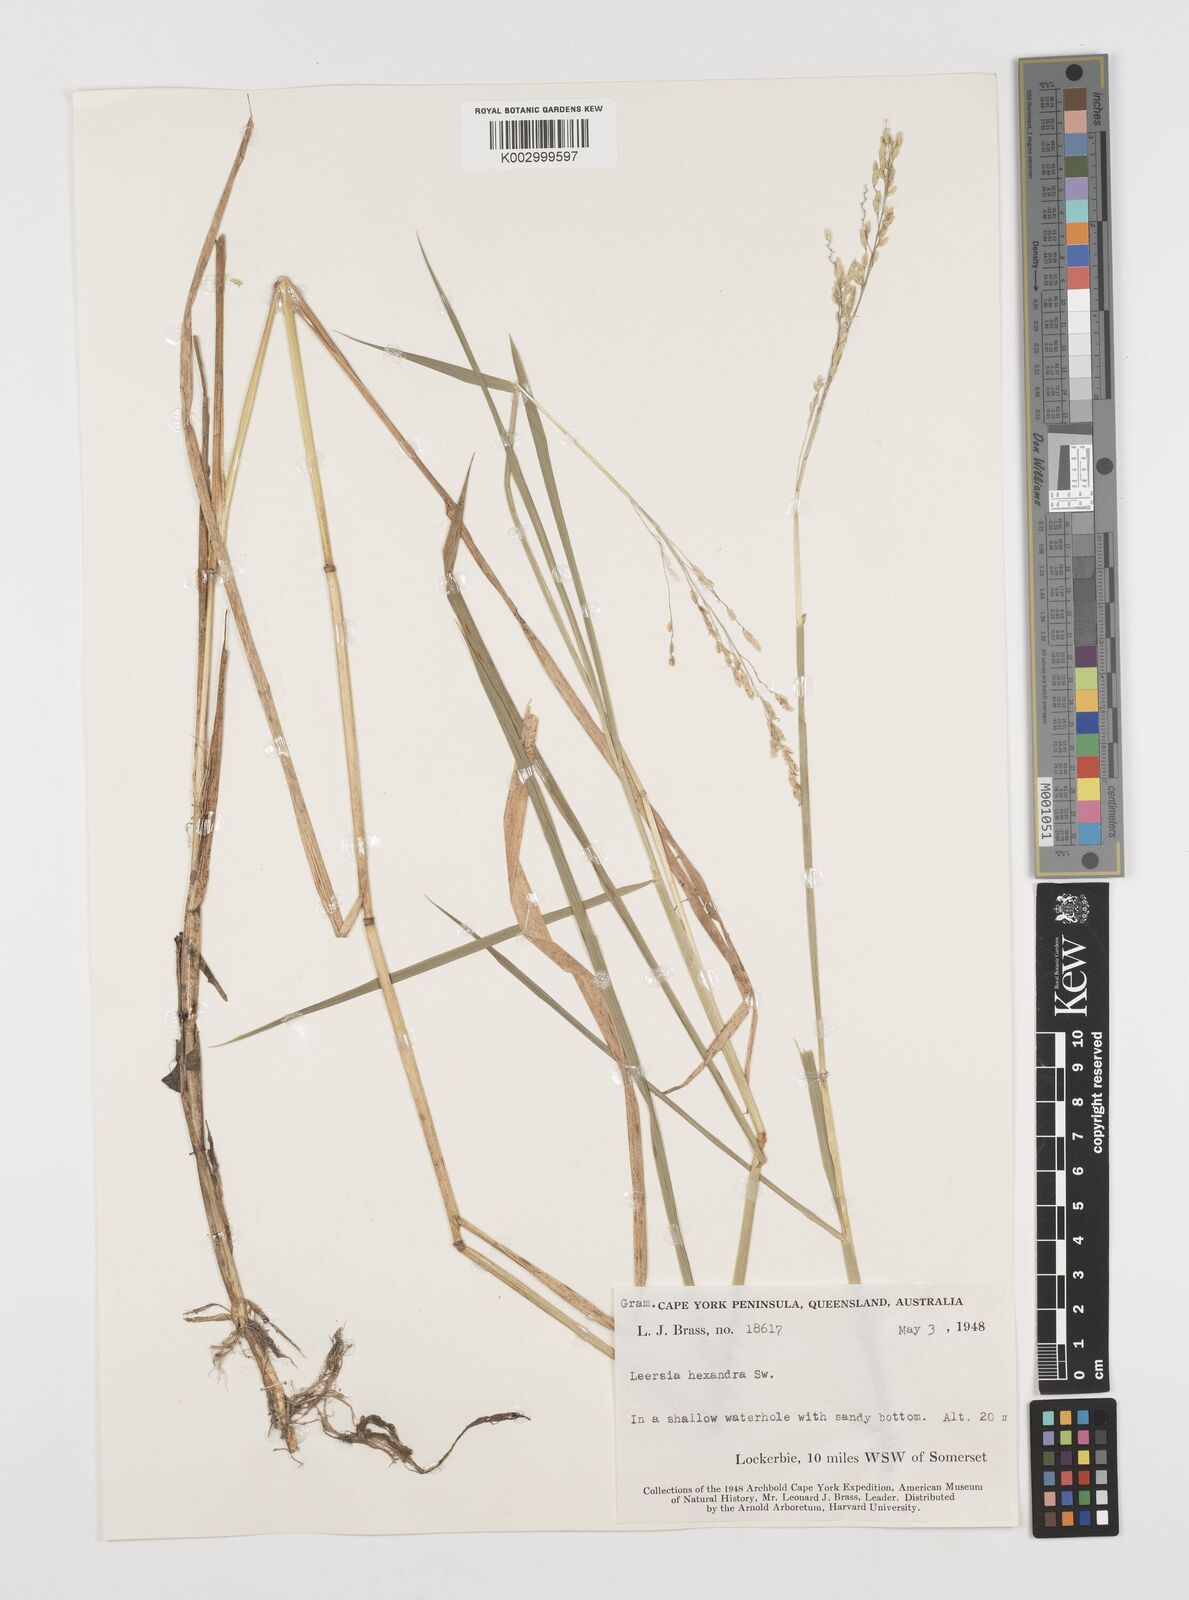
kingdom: Plantae
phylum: Tracheophyta
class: Liliopsida
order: Poales
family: Poaceae
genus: Leersia
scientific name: Leersia hexandra
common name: Southern cut grass
